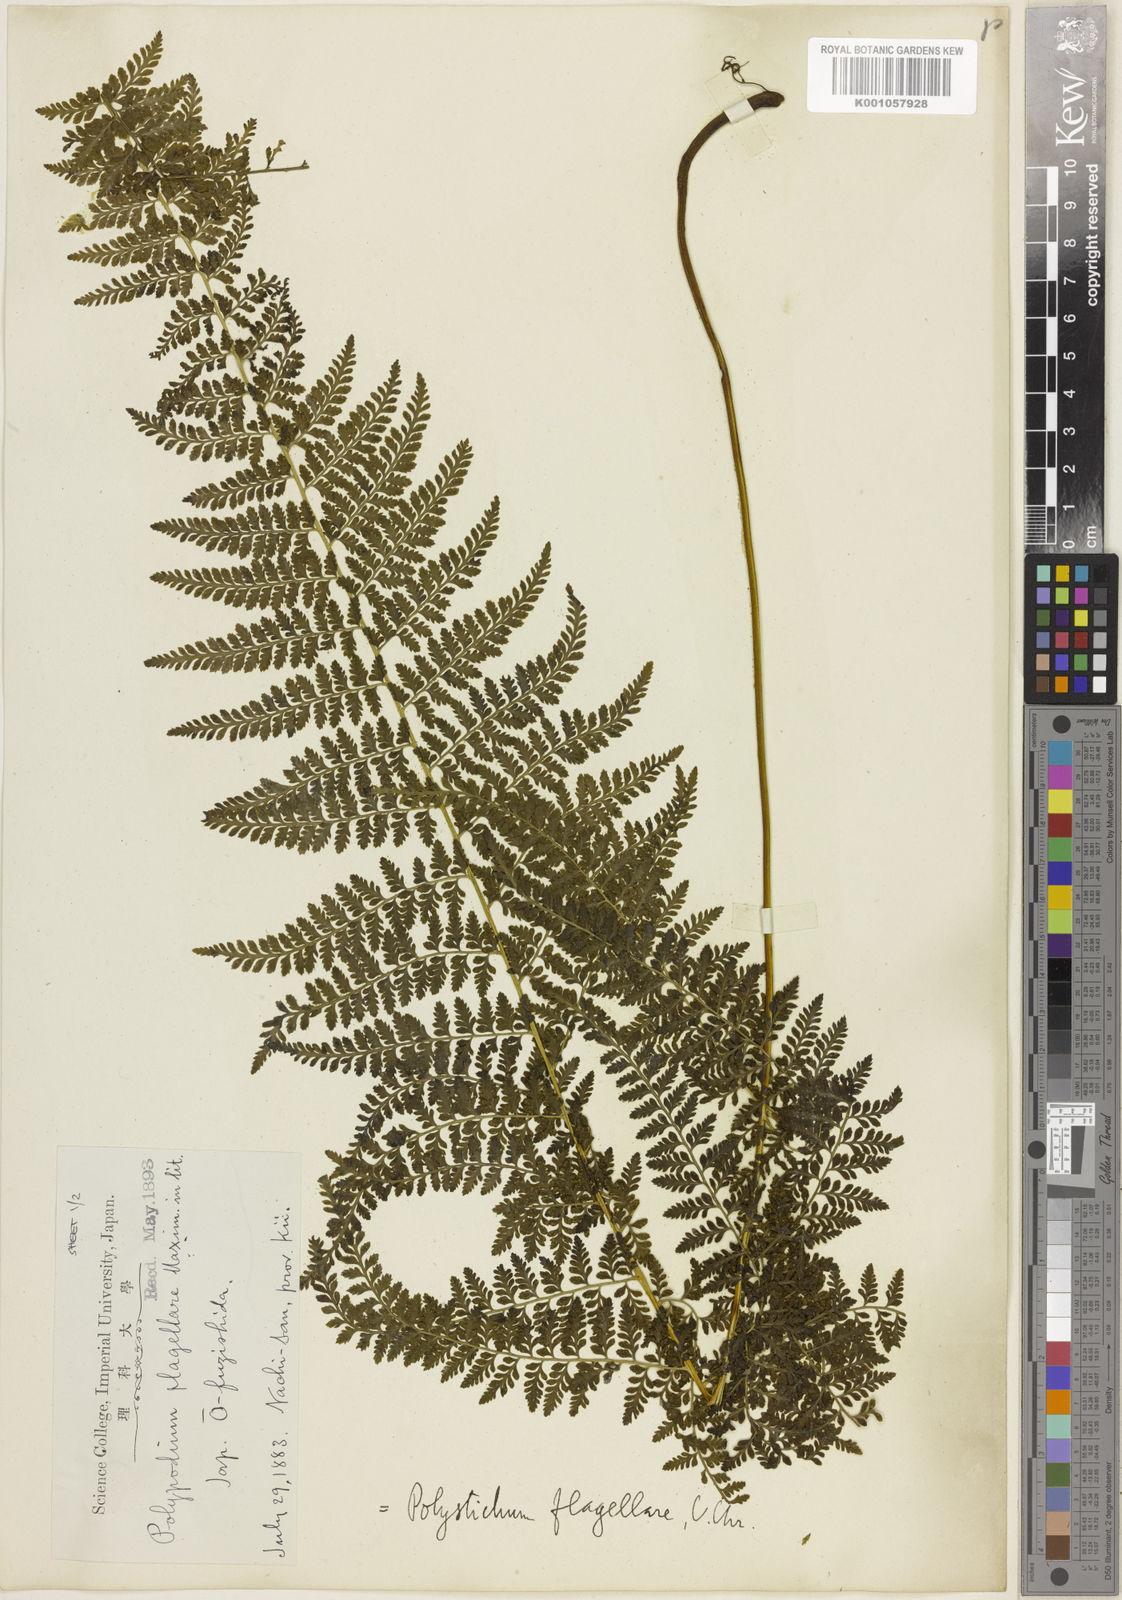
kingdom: Plantae
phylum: Tracheophyta
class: Polypodiopsida
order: Polypodiales
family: Dennstaedtiaceae
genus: Monachosorum
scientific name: Monachosorum flagellare
